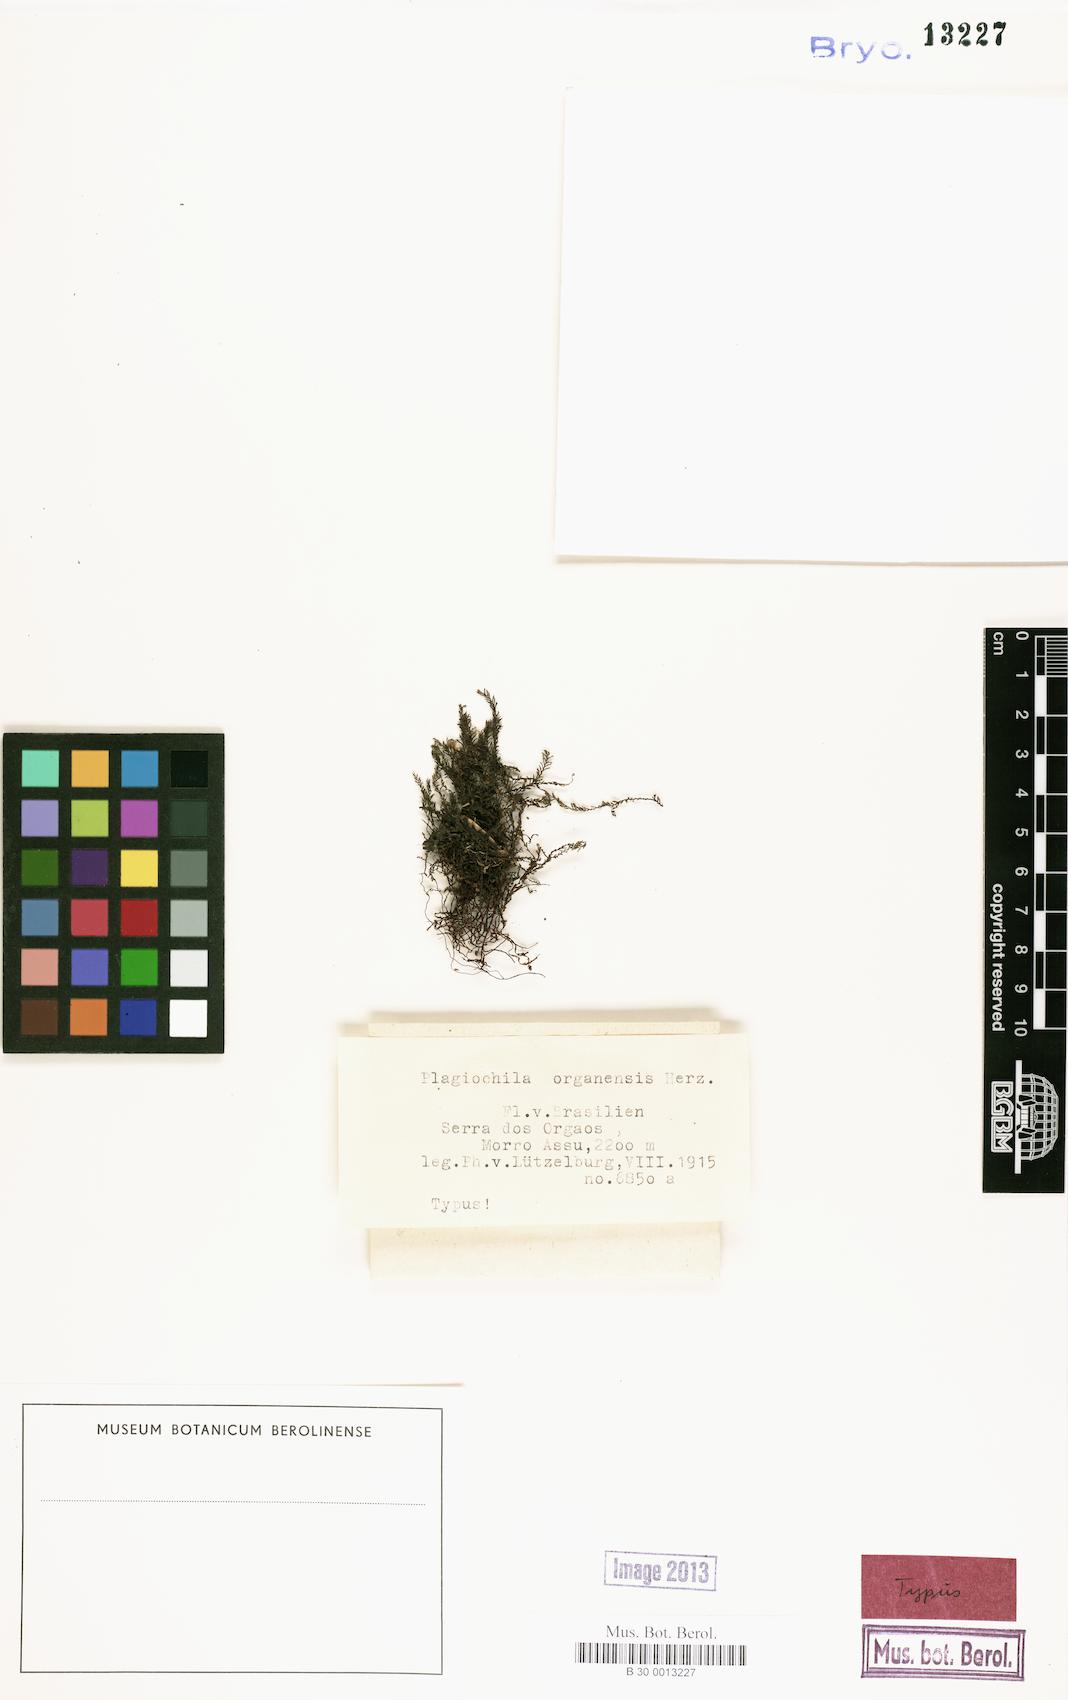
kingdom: Plantae
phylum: Marchantiophyta
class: Jungermanniopsida
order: Jungermanniales
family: Plagiochilaceae
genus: Plagiochila
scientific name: Plagiochila rutilans
